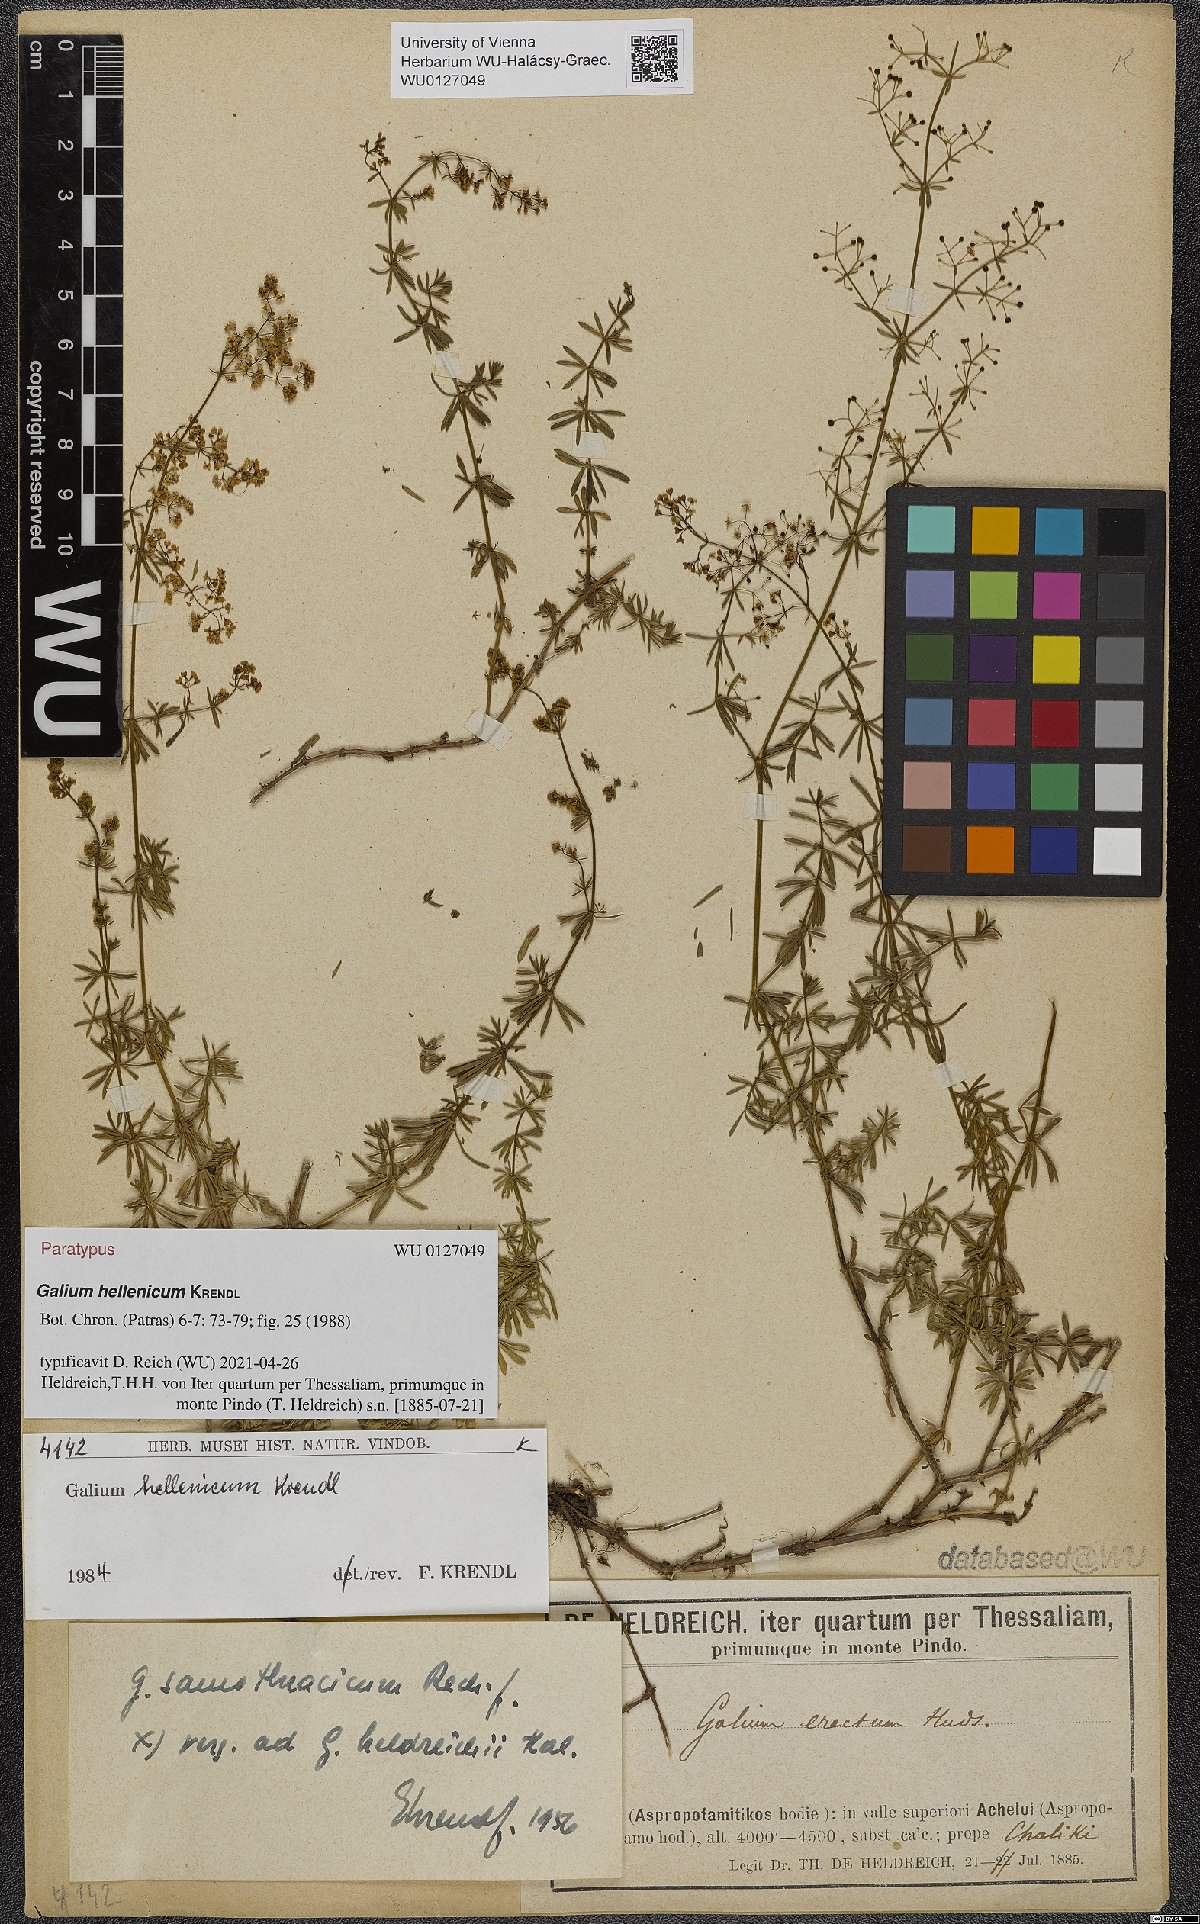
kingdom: Plantae
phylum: Tracheophyta
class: Magnoliopsida
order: Gentianales
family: Rubiaceae
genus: Galium
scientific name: Galium hellenicum
